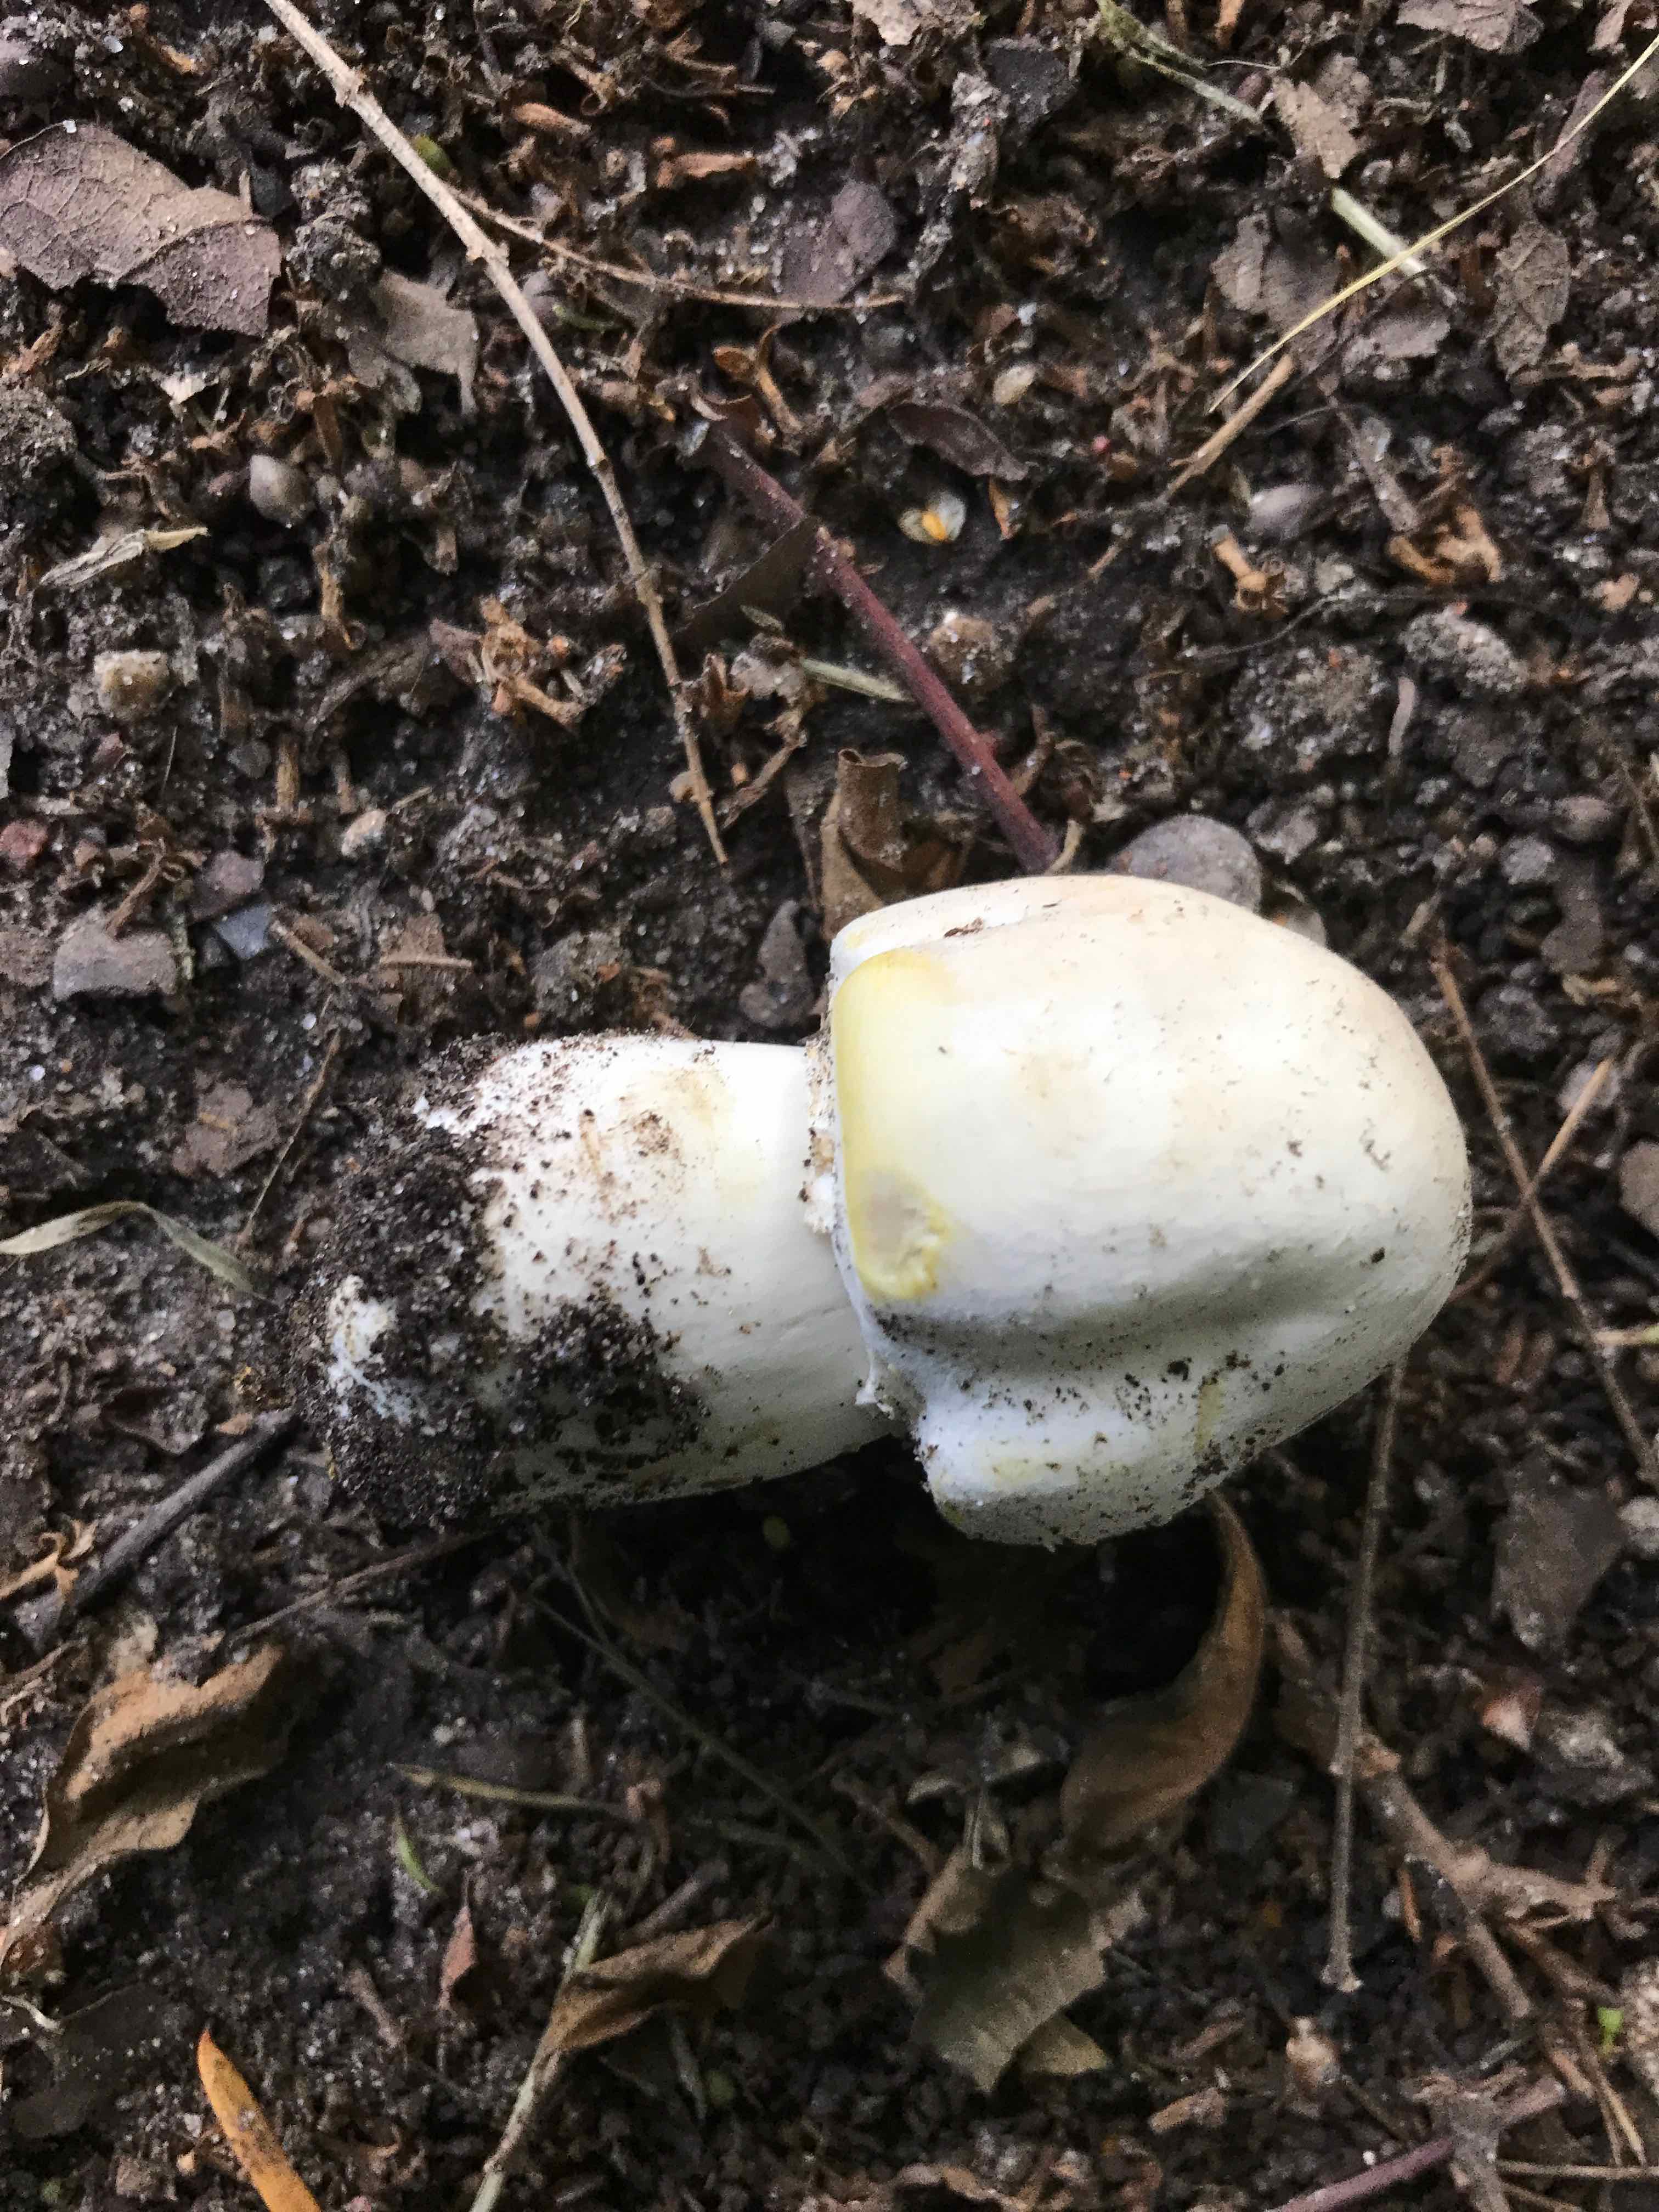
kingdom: Fungi
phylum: Basidiomycota
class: Agaricomycetes
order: Agaricales
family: Agaricaceae
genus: Agaricus
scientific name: Agaricus xanthodermus
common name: karbol-champignon
